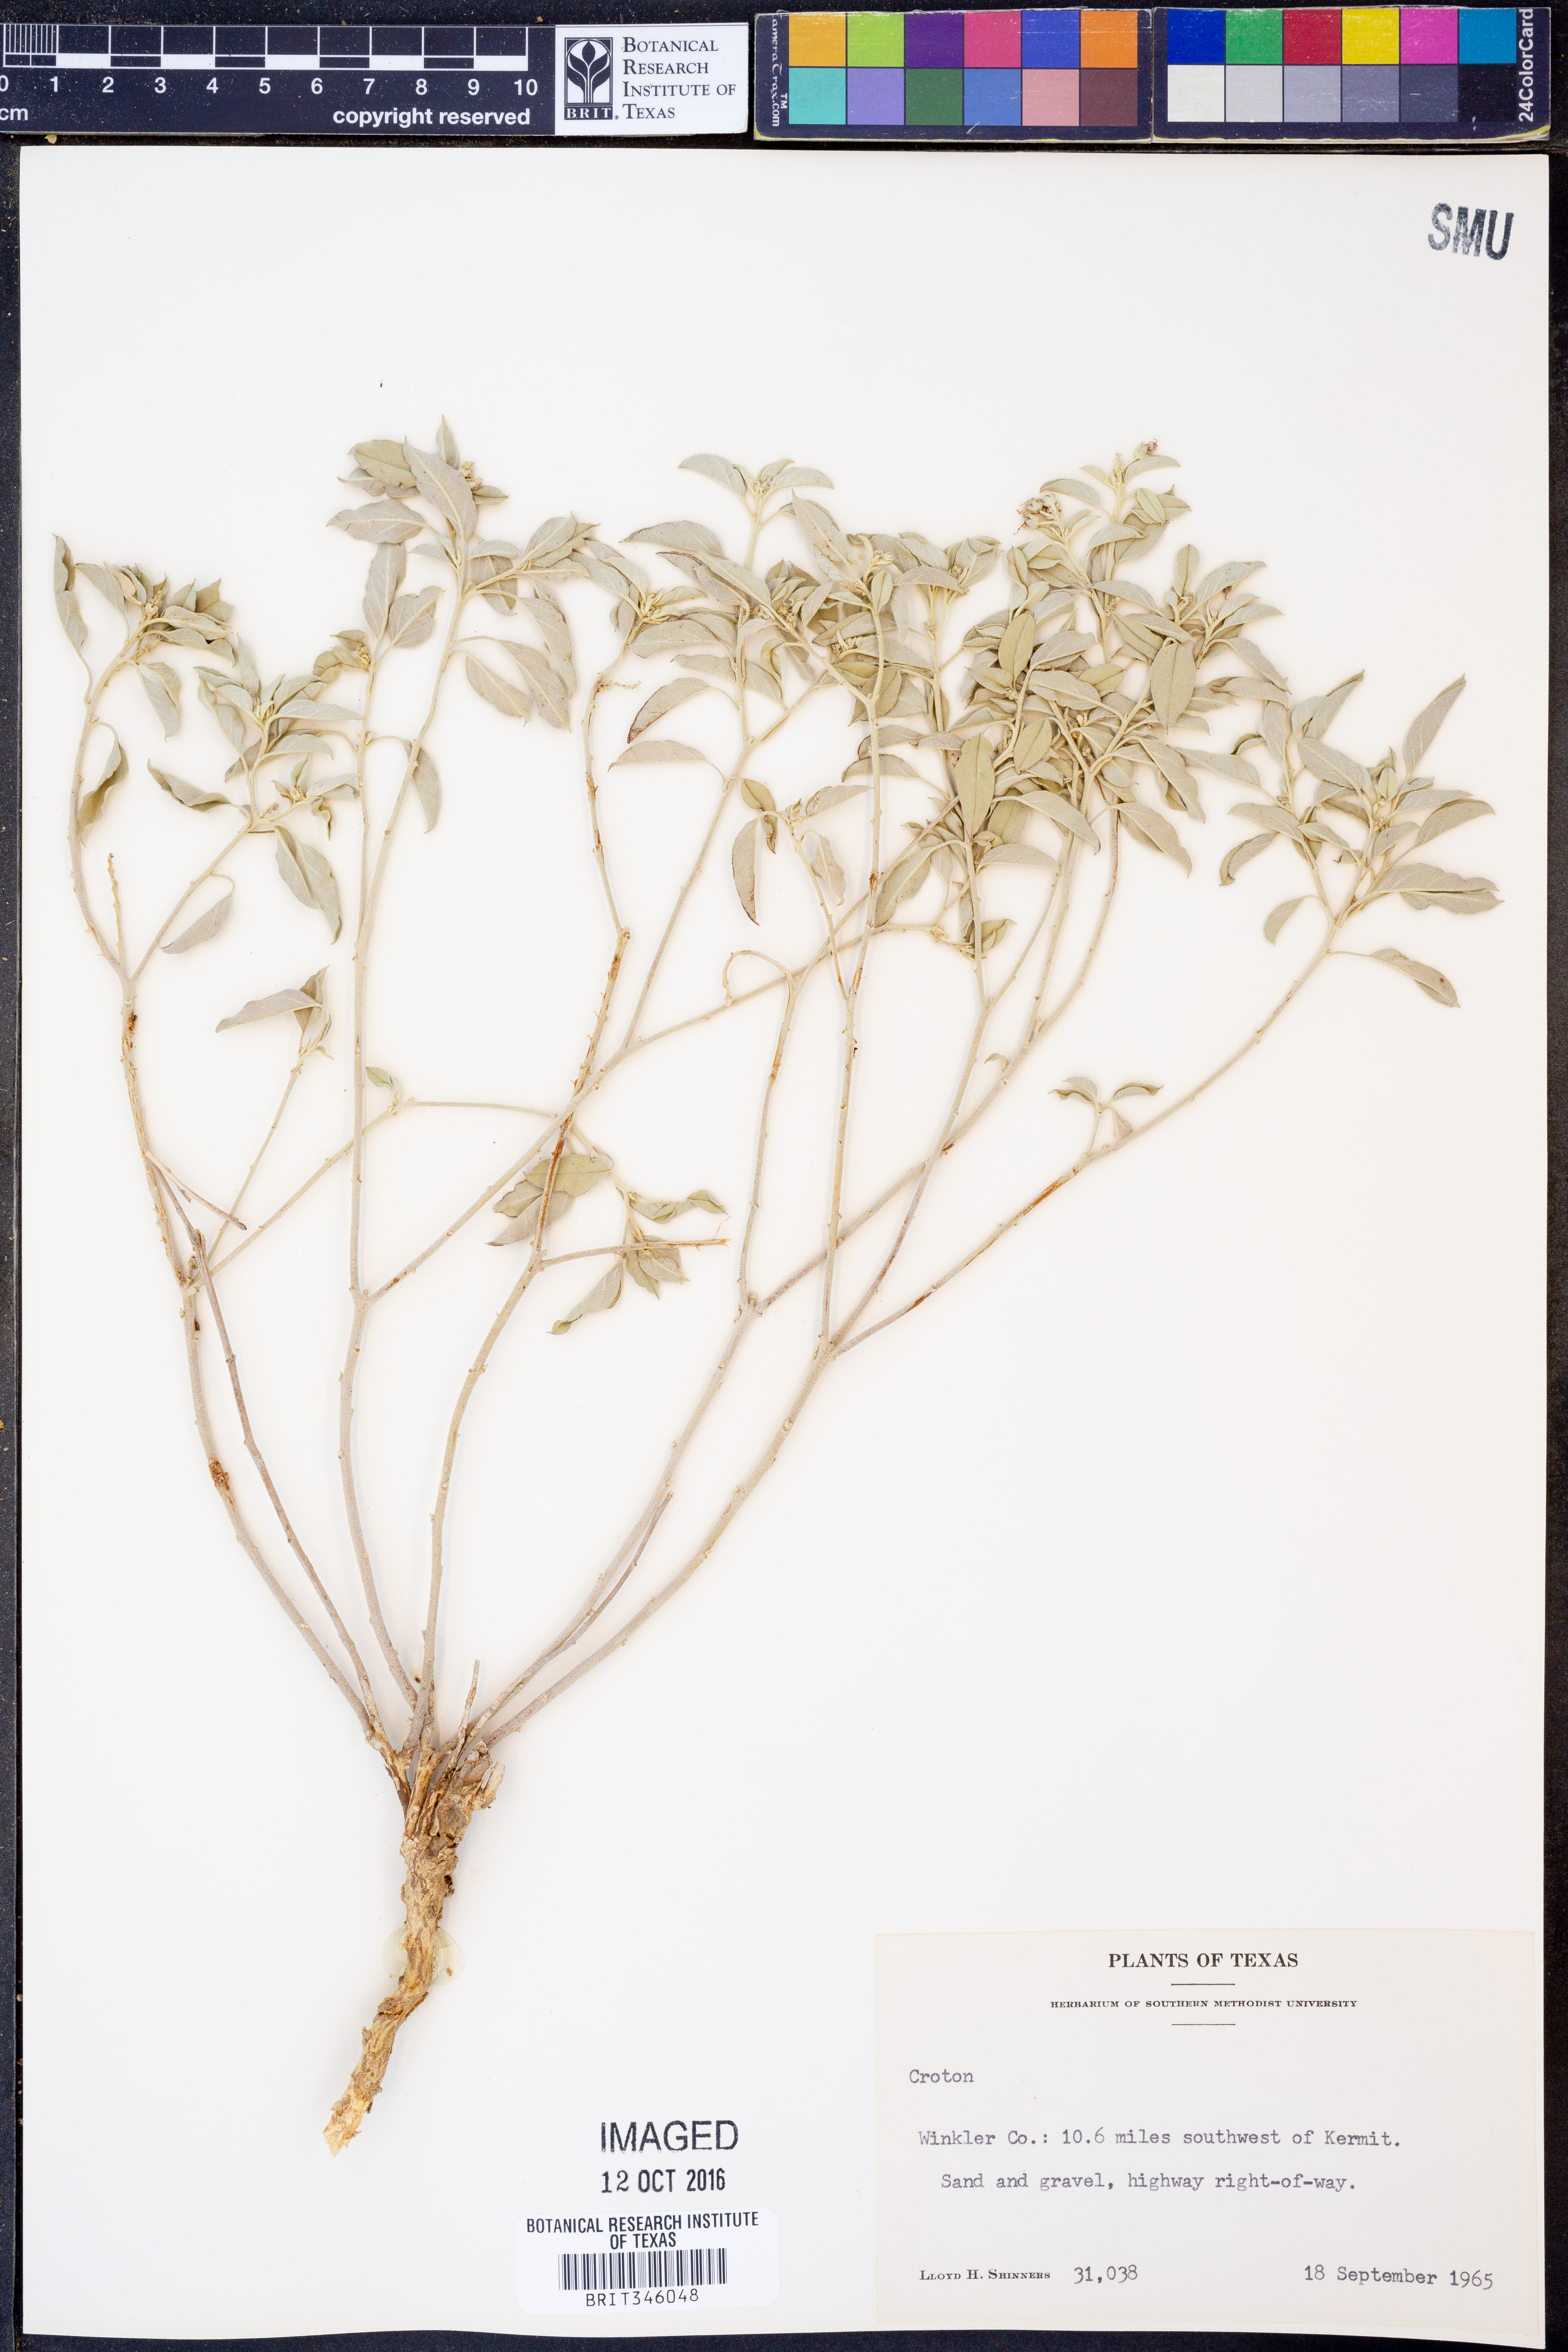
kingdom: Plantae
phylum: Tracheophyta
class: Magnoliopsida
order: Malpighiales
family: Euphorbiaceae
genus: Croton
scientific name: Croton
